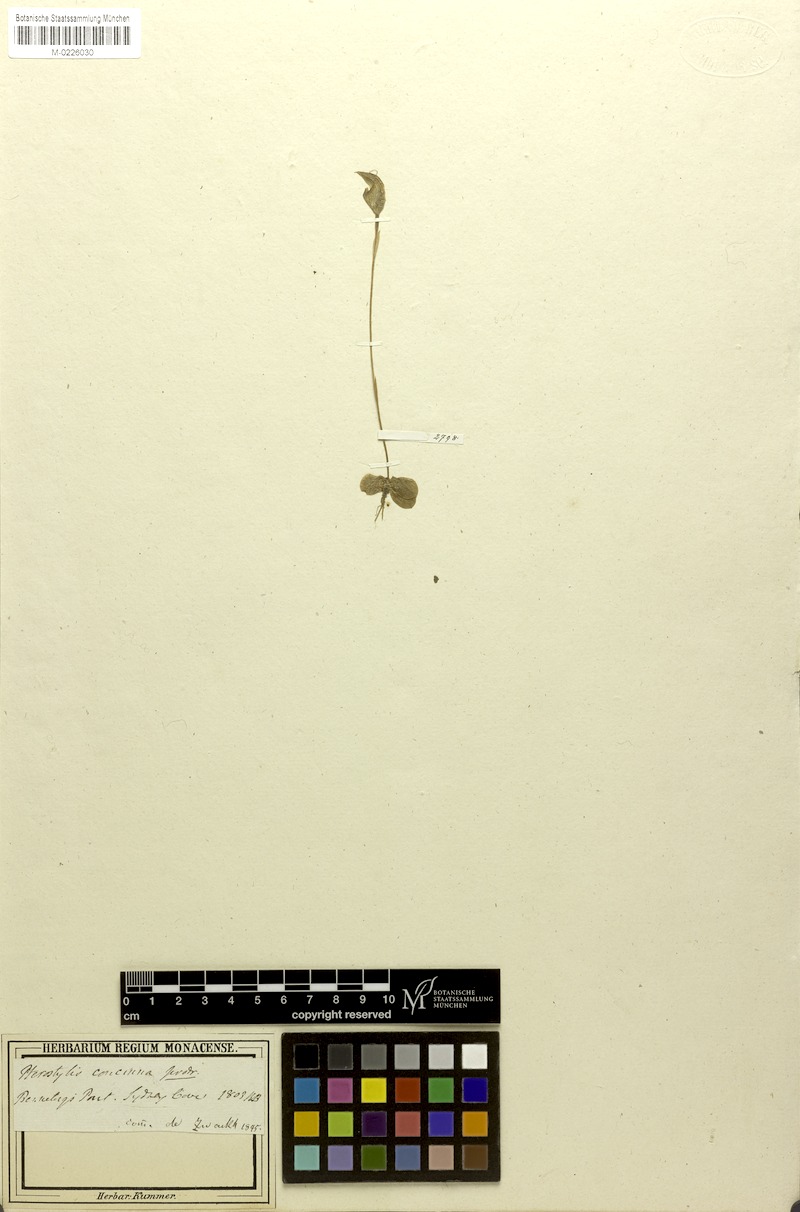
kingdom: Plantae
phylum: Tracheophyta
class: Liliopsida
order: Asparagales
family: Orchidaceae
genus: Pterostylis
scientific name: Pterostylis concinna
